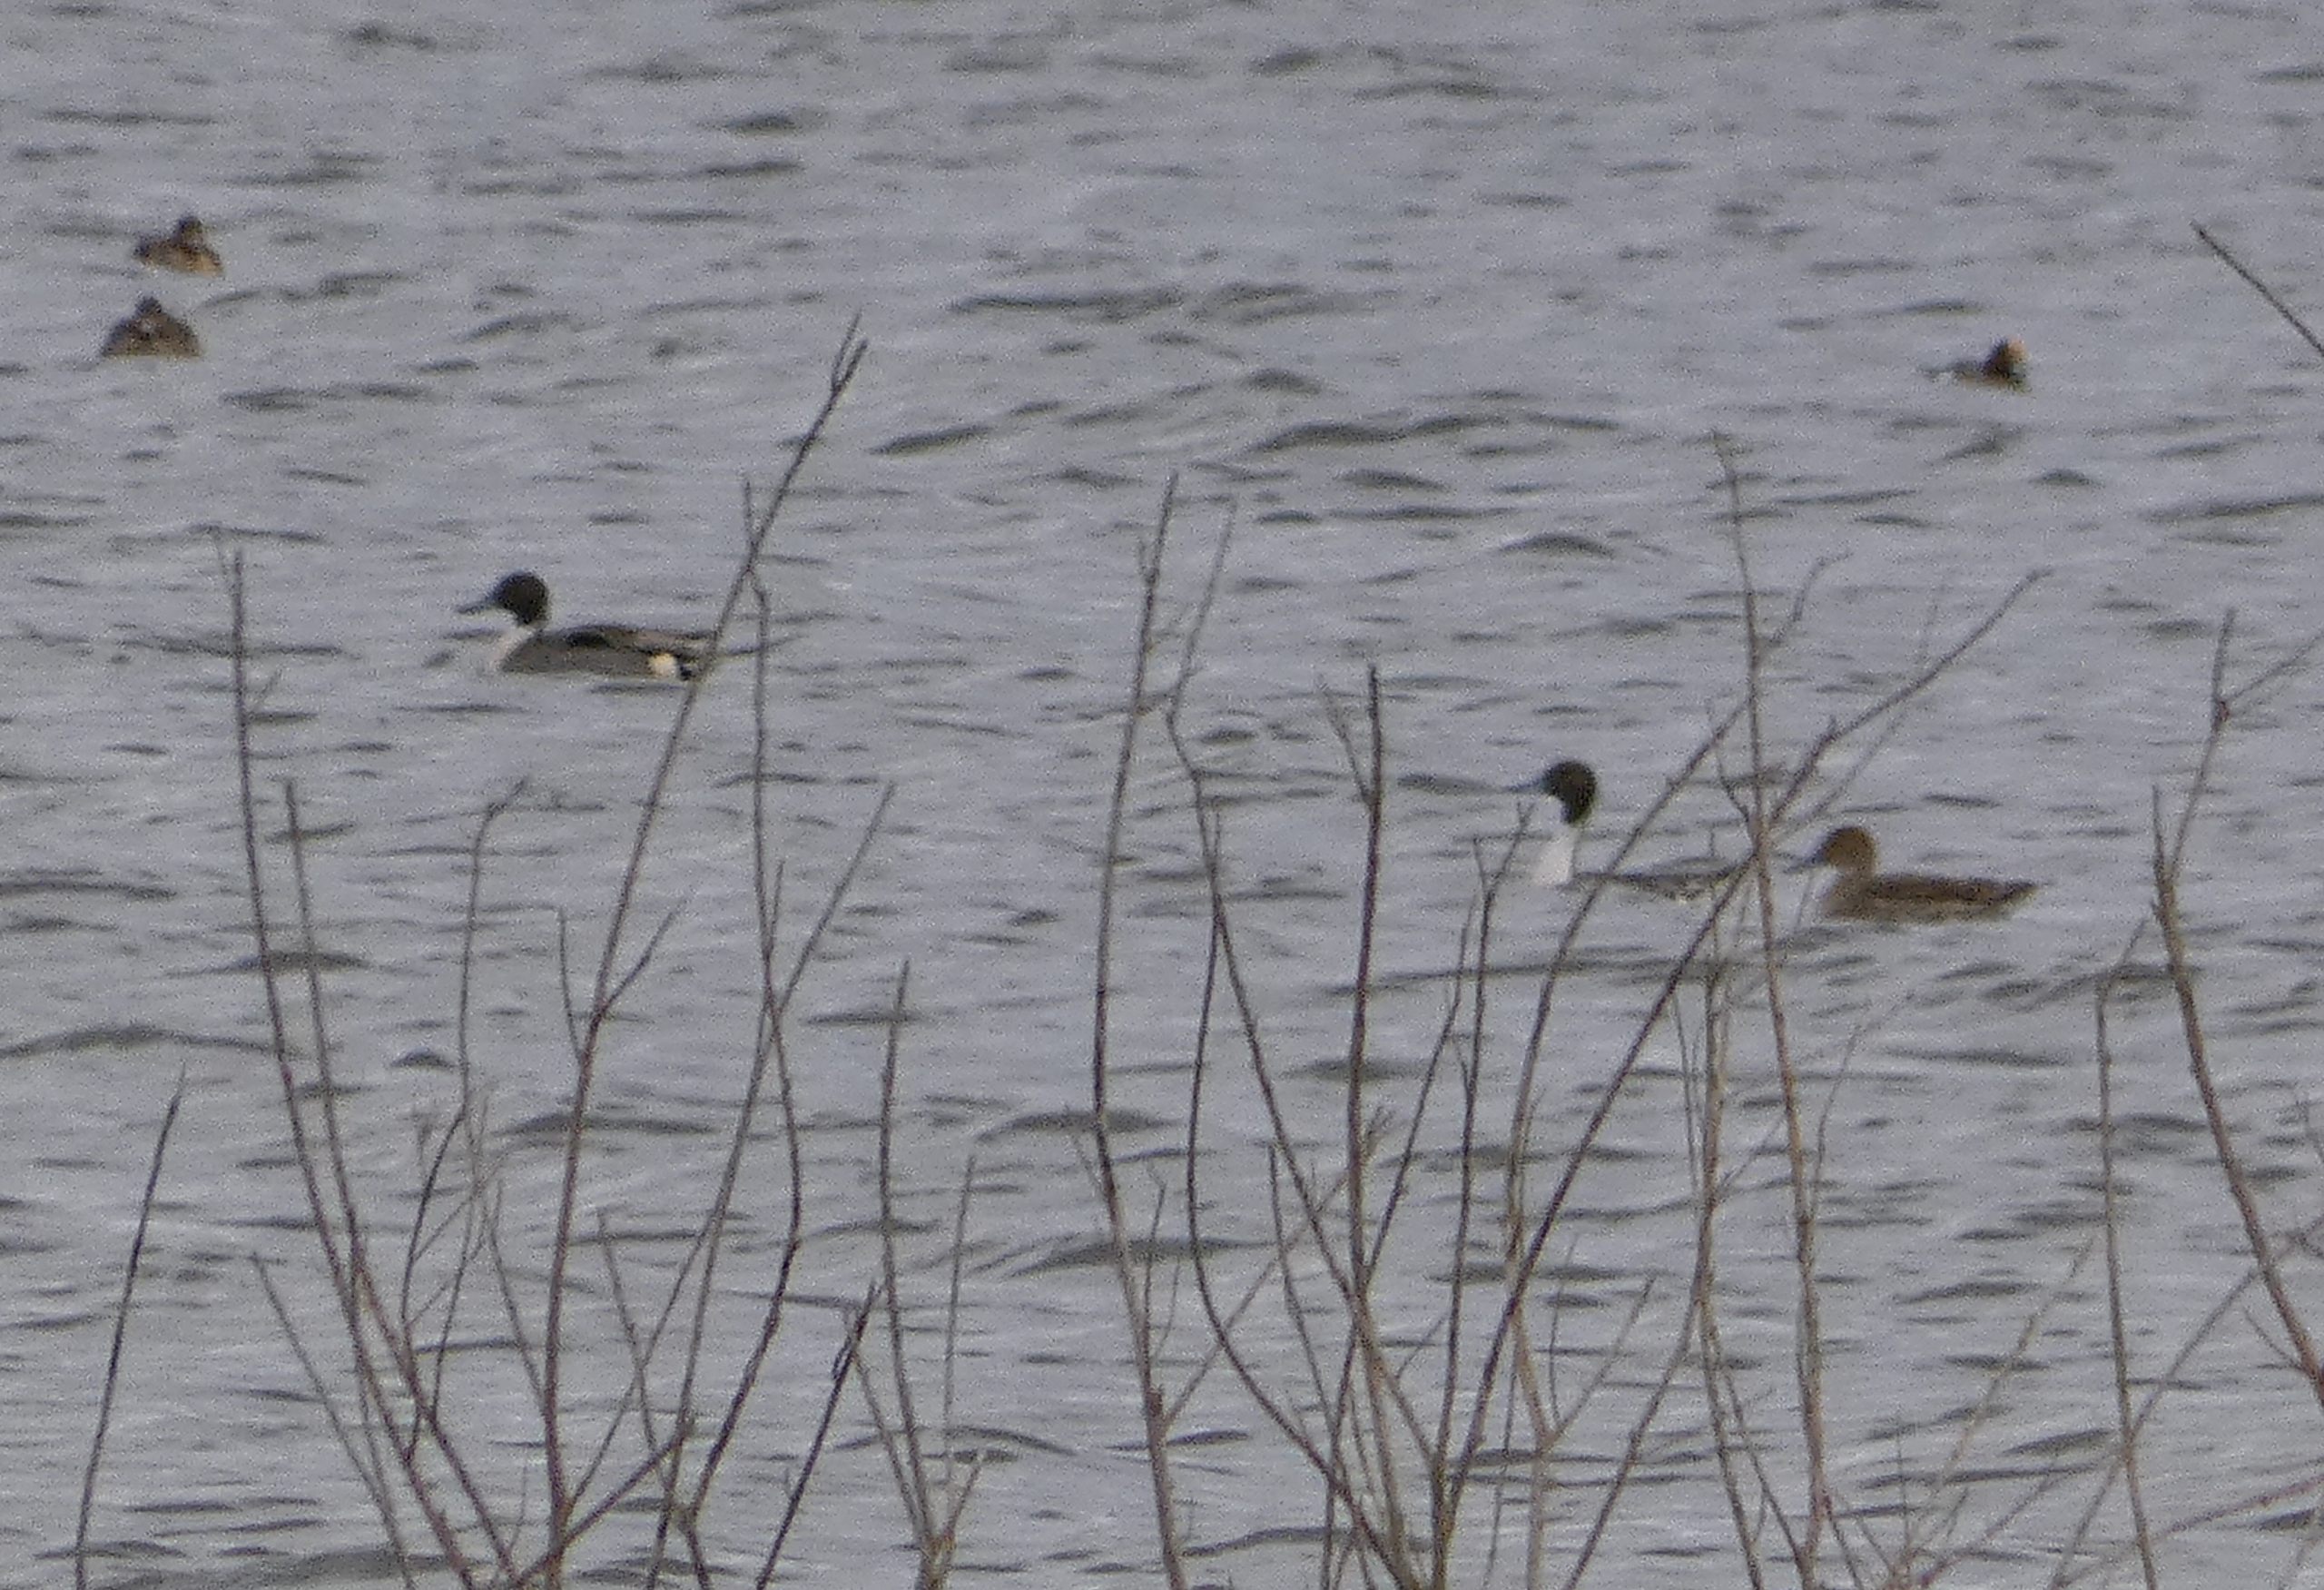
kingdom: Animalia
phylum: Chordata
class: Aves
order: Anseriformes
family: Anatidae
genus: Anas
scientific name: Anas acuta
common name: Spidsand
